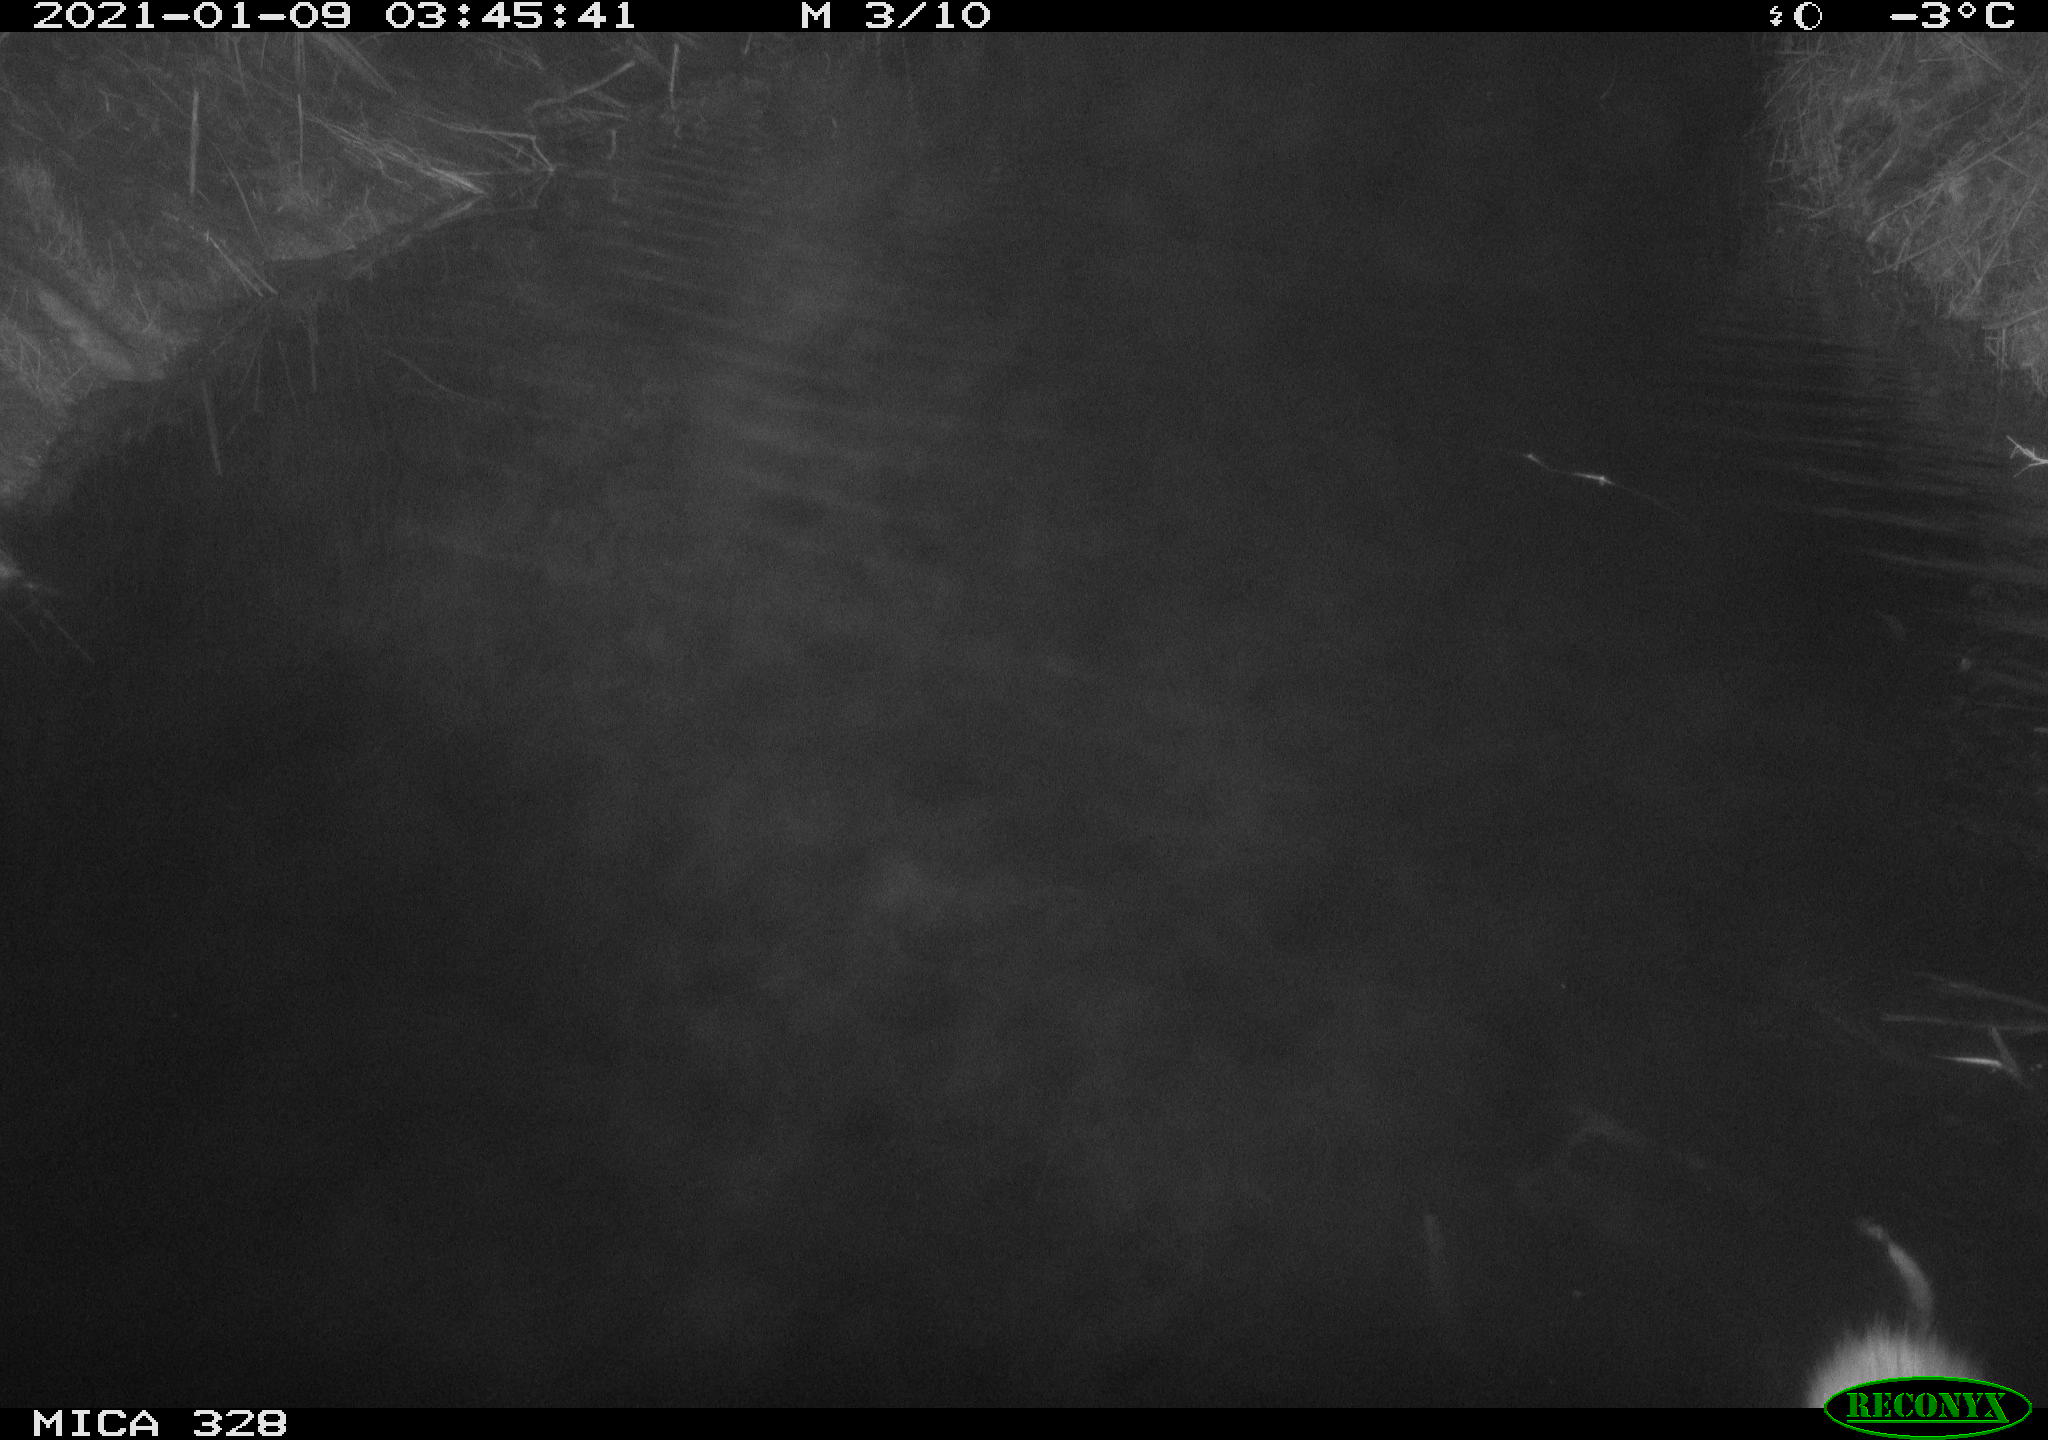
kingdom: Animalia
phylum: Chordata
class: Mammalia
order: Rodentia
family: Cricetidae
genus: Ondatra
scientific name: Ondatra zibethicus
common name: Muskrat
